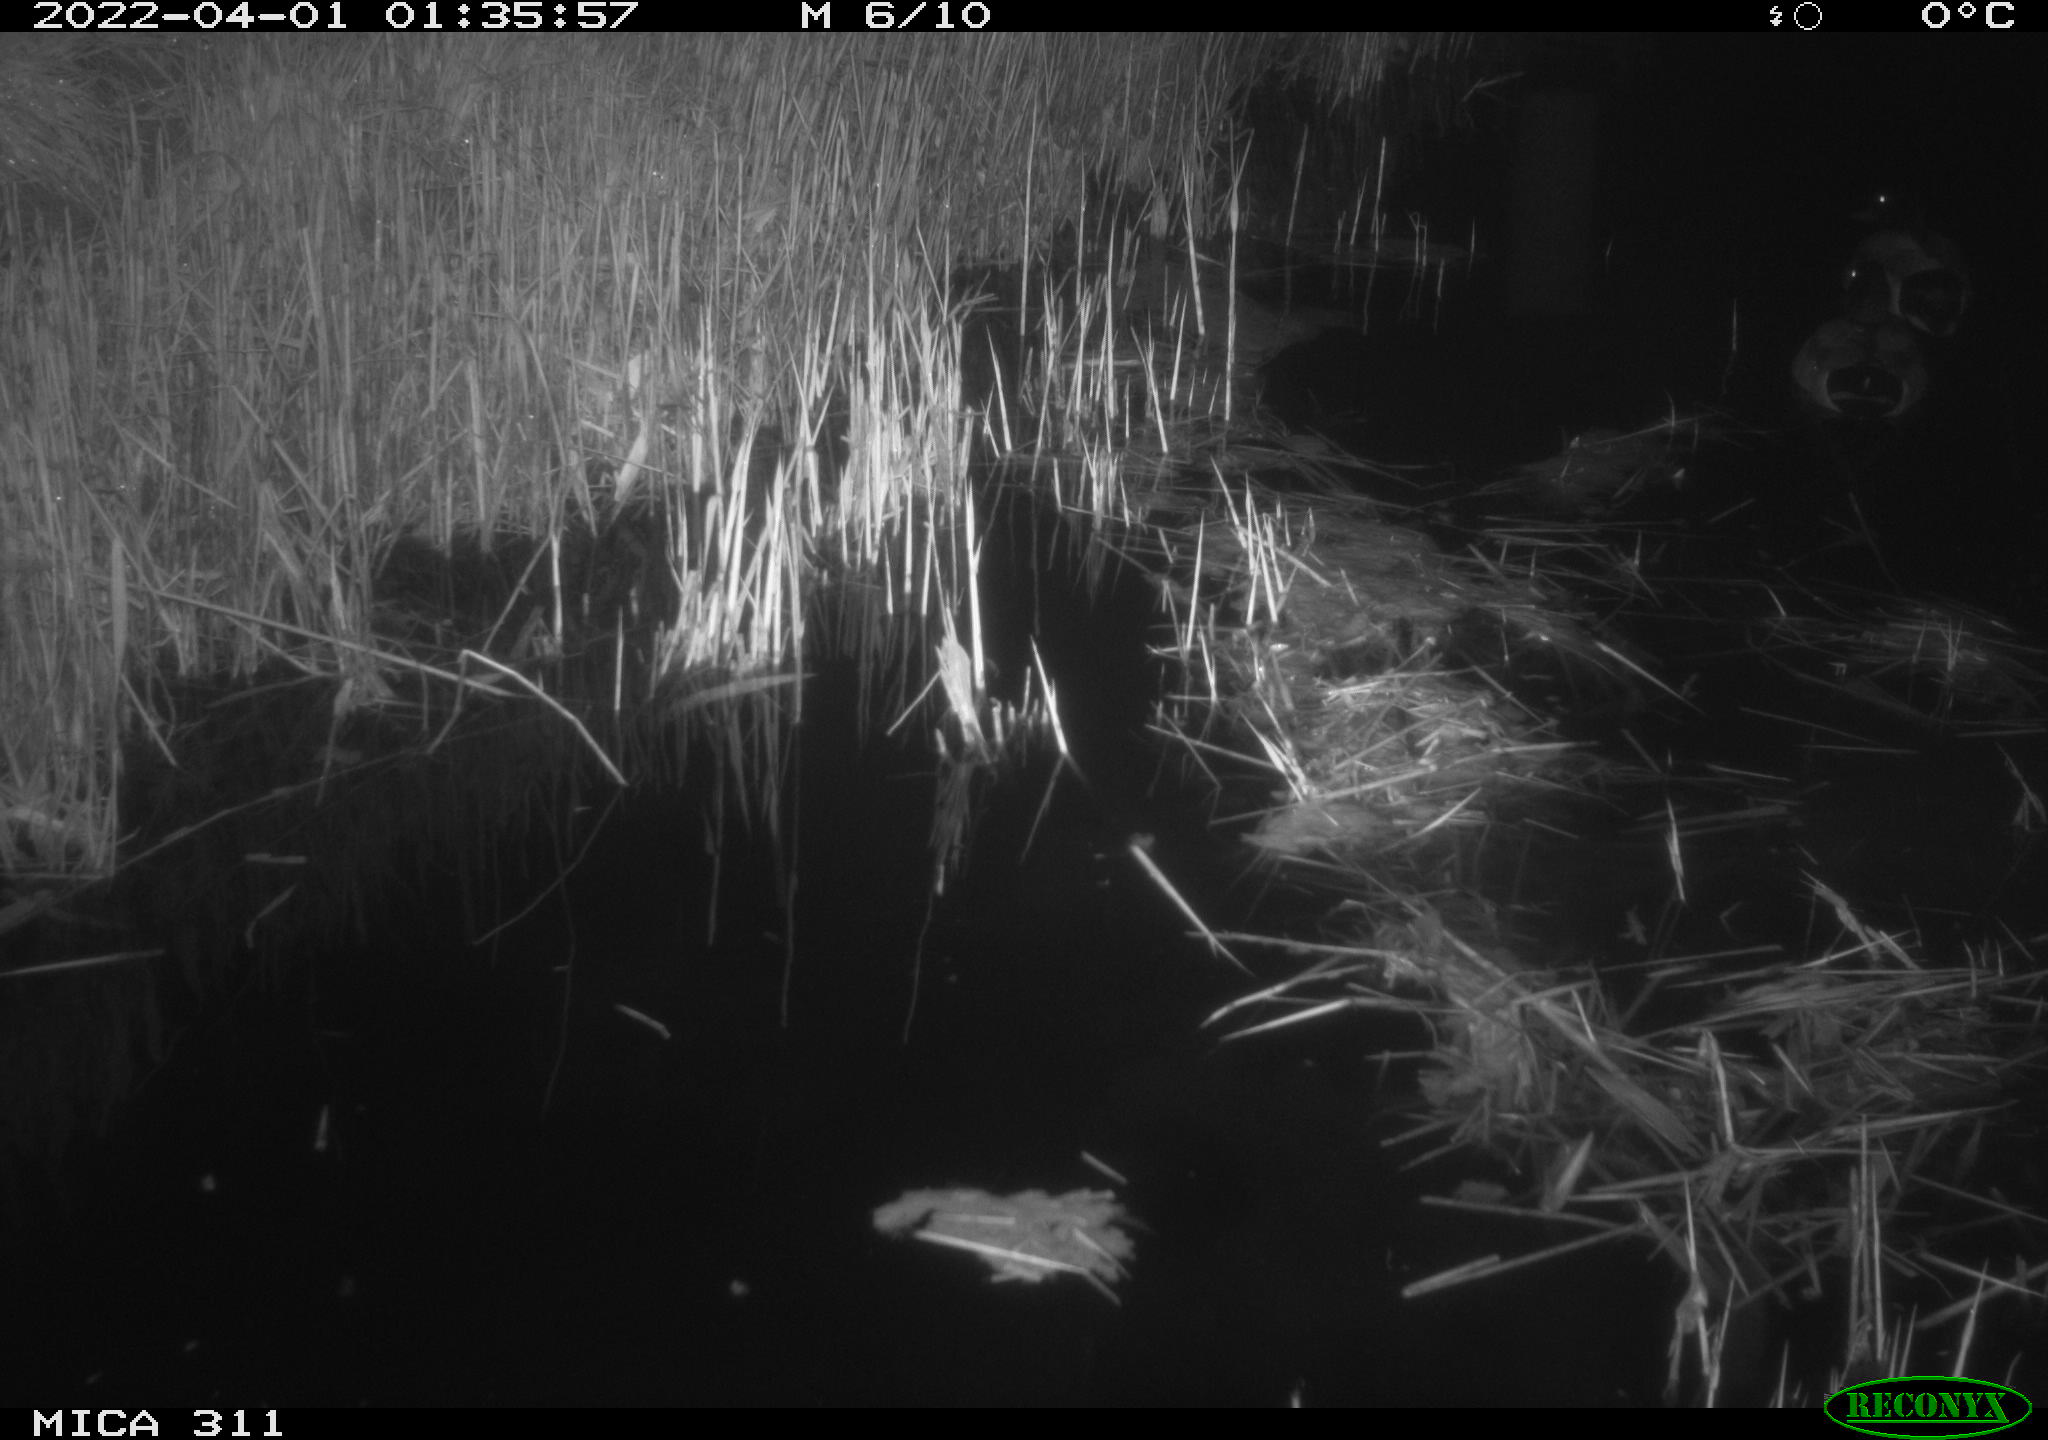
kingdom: Animalia
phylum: Chordata
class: Aves
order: Anseriformes
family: Anatidae
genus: Anas
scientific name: Anas platyrhynchos
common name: Mallard
